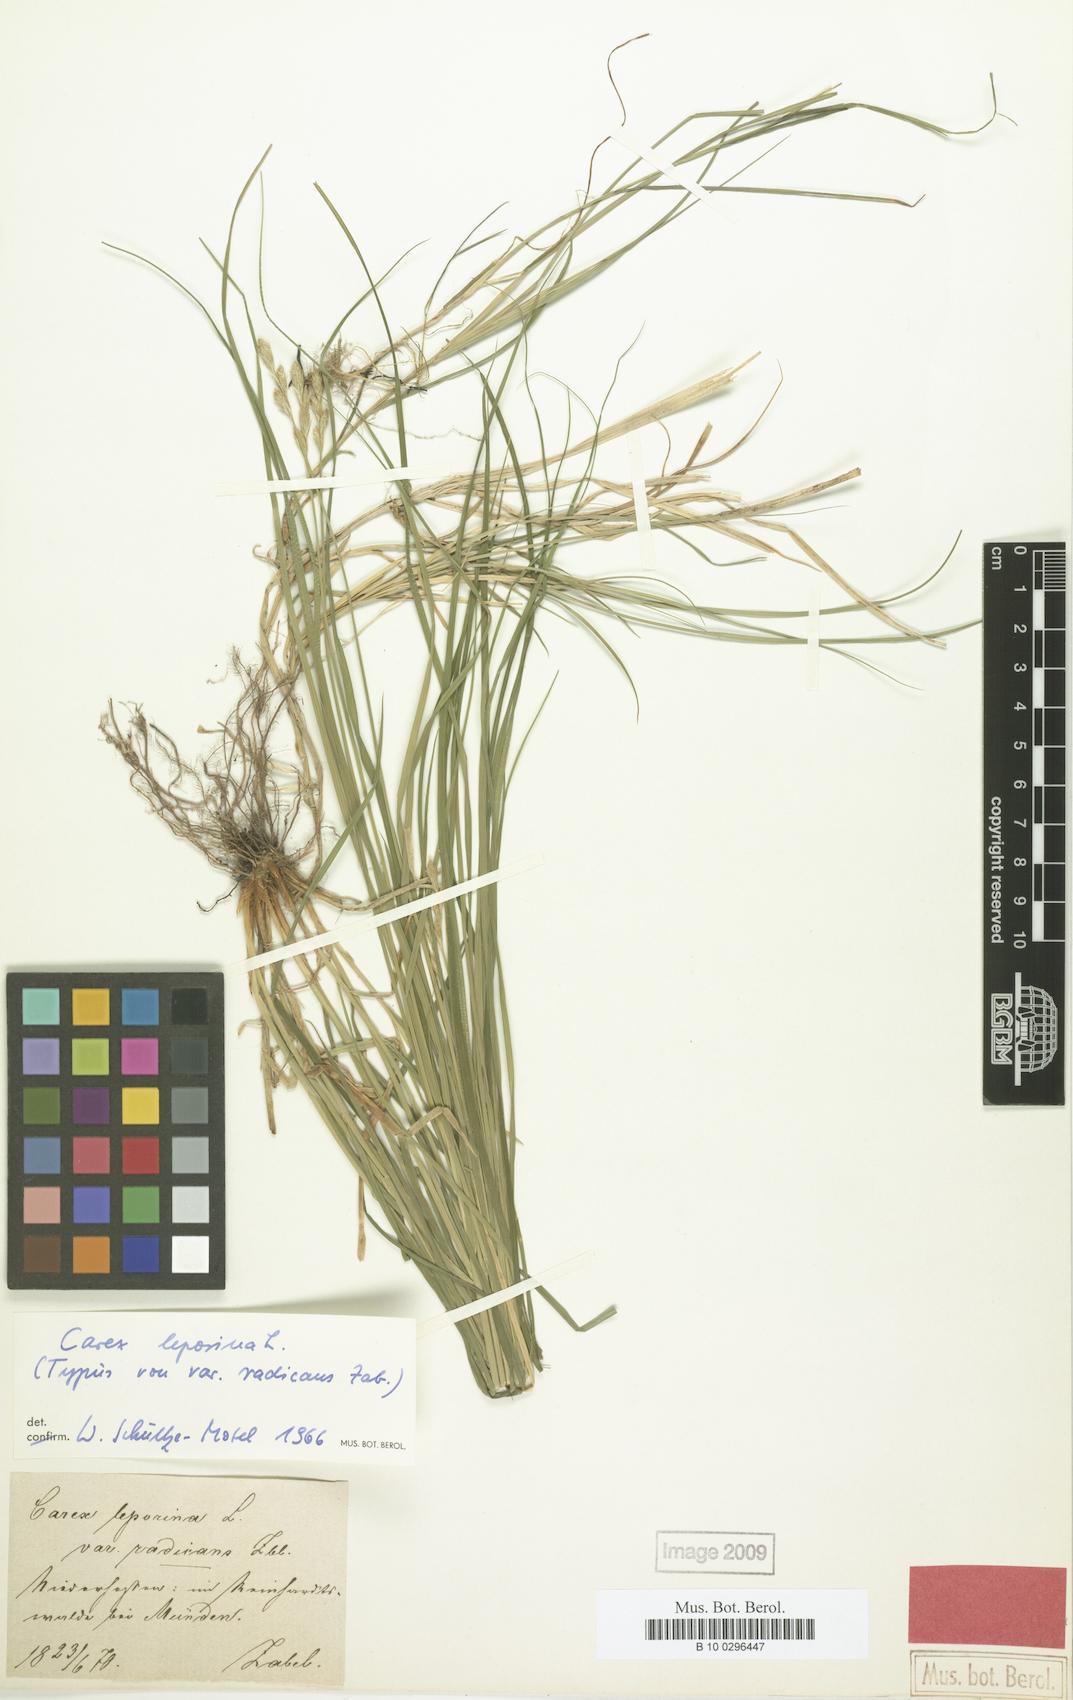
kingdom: Plantae
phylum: Tracheophyta
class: Liliopsida
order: Poales
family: Cyperaceae
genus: Carex
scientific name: Carex leporina
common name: Oval sedge
